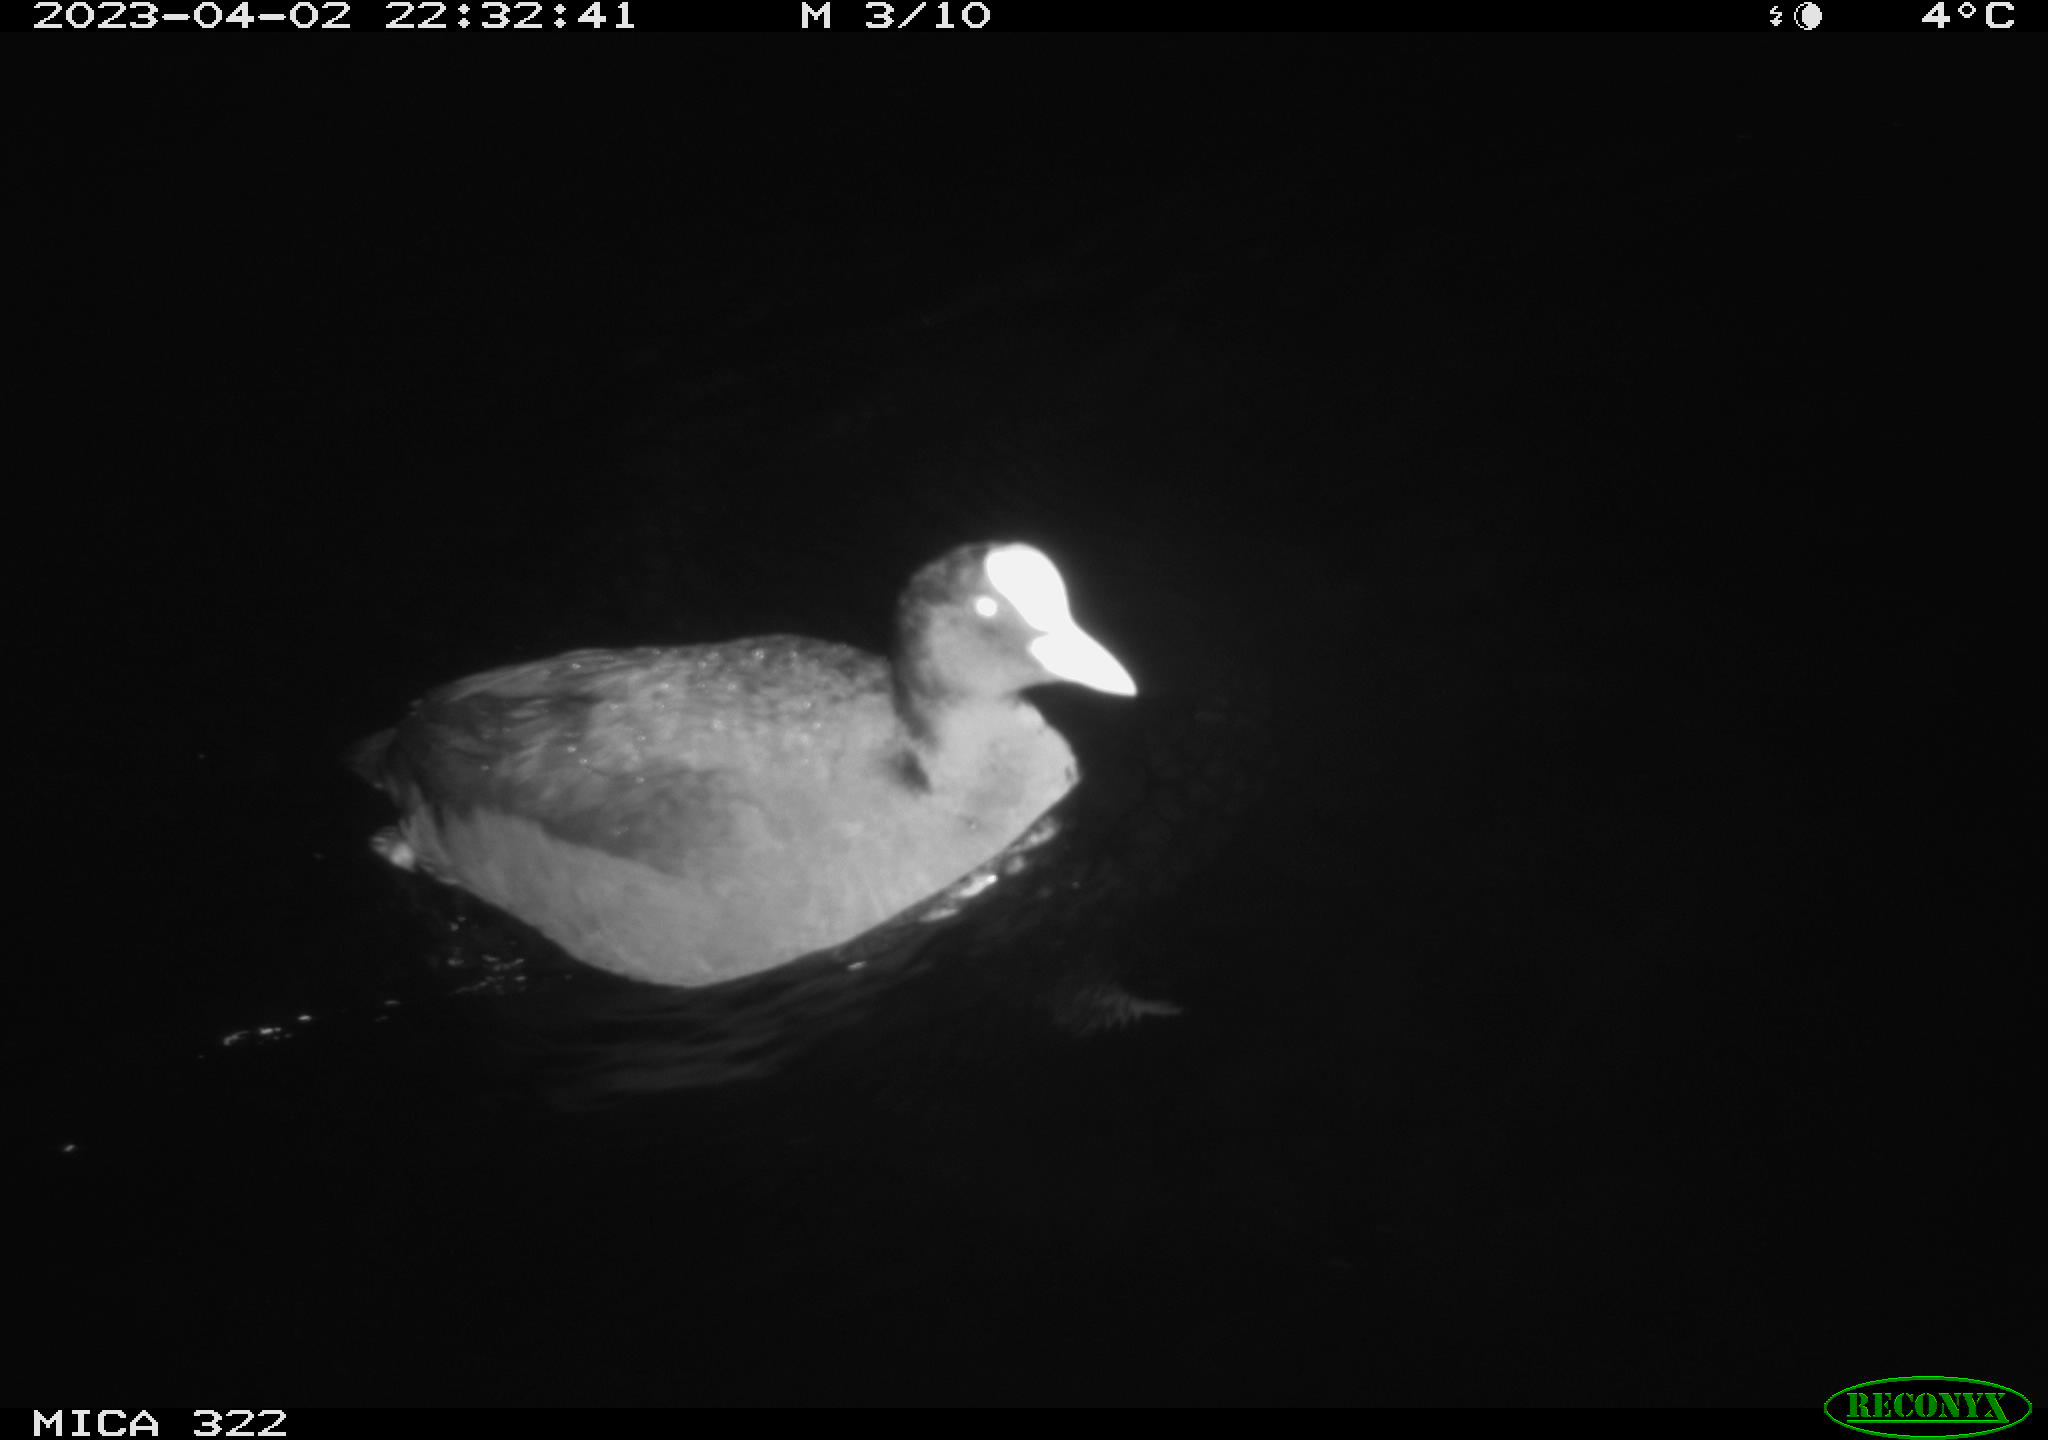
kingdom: Animalia
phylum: Chordata
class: Aves
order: Anseriformes
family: Anatidae
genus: Anas
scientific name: Anas
